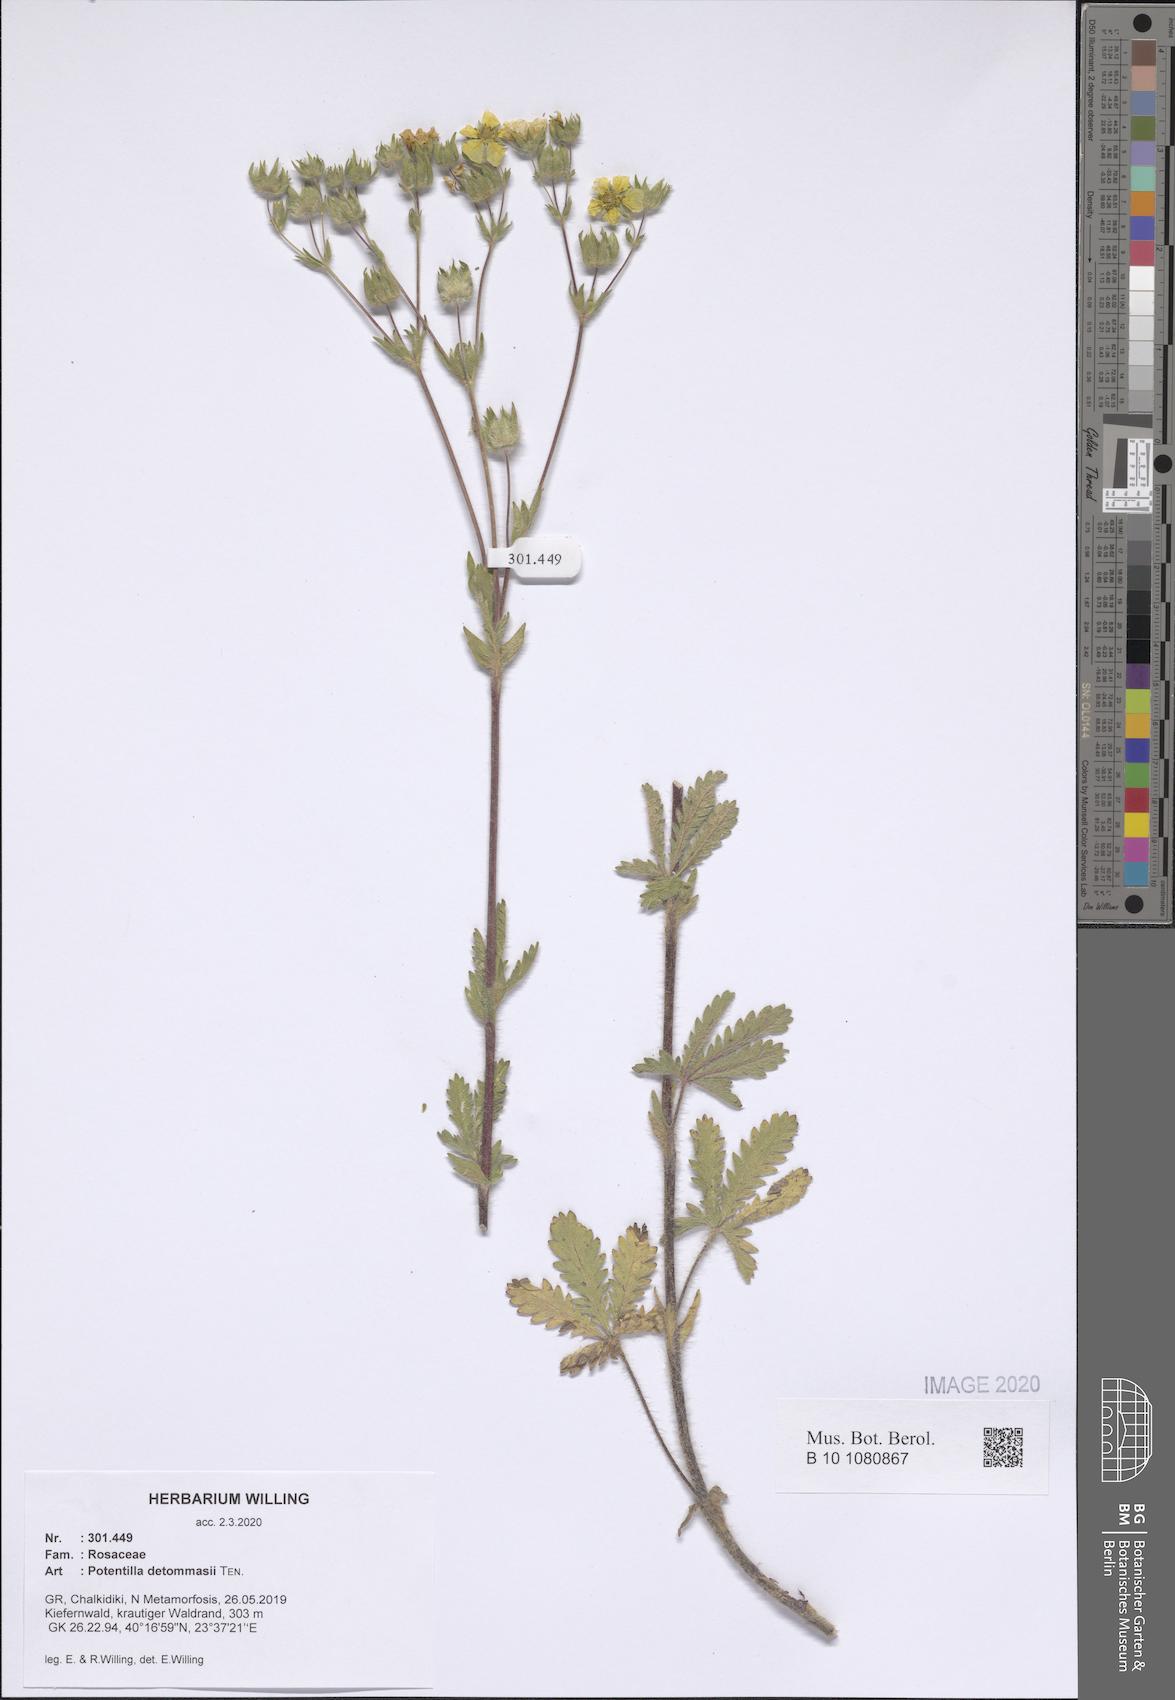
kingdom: Plantae
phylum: Tracheophyta
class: Magnoliopsida
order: Rosales
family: Rosaceae
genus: Potentilla
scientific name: Potentilla detommasii
